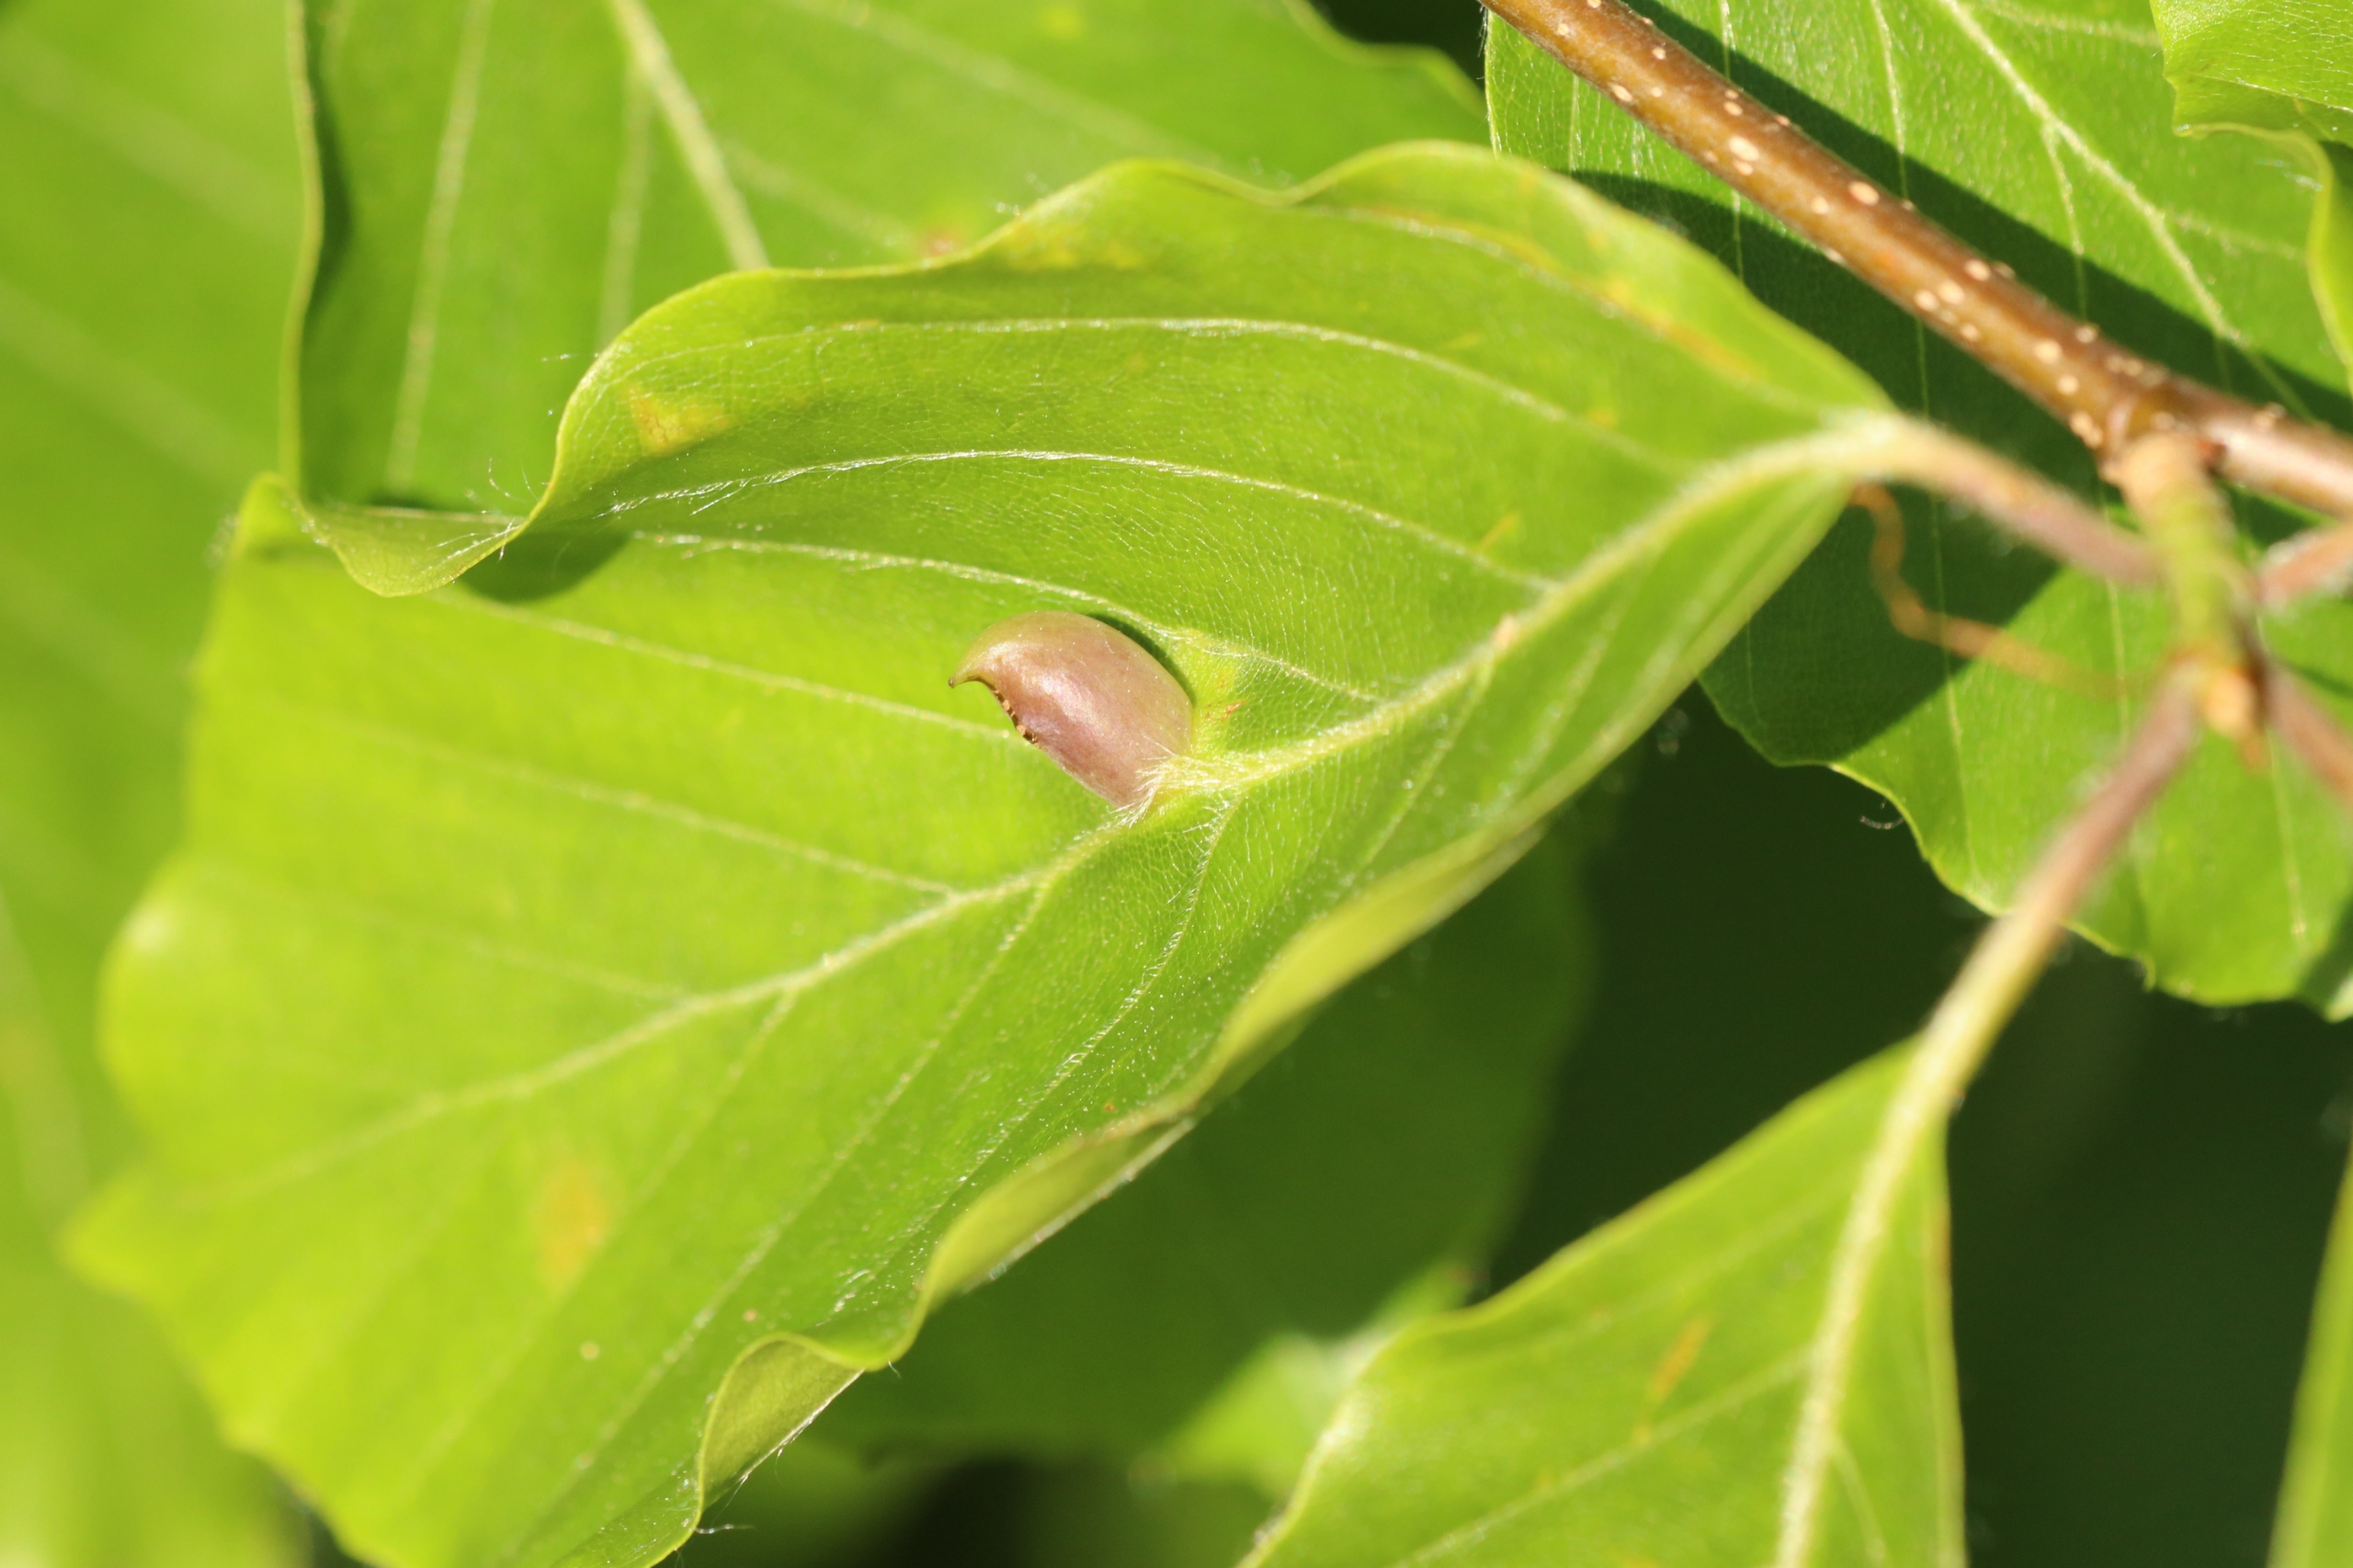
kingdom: Animalia
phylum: Arthropoda
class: Insecta
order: Diptera
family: Cecidomyiidae
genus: Mikiola
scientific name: Mikiola fagi
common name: Bøgegalmyg
